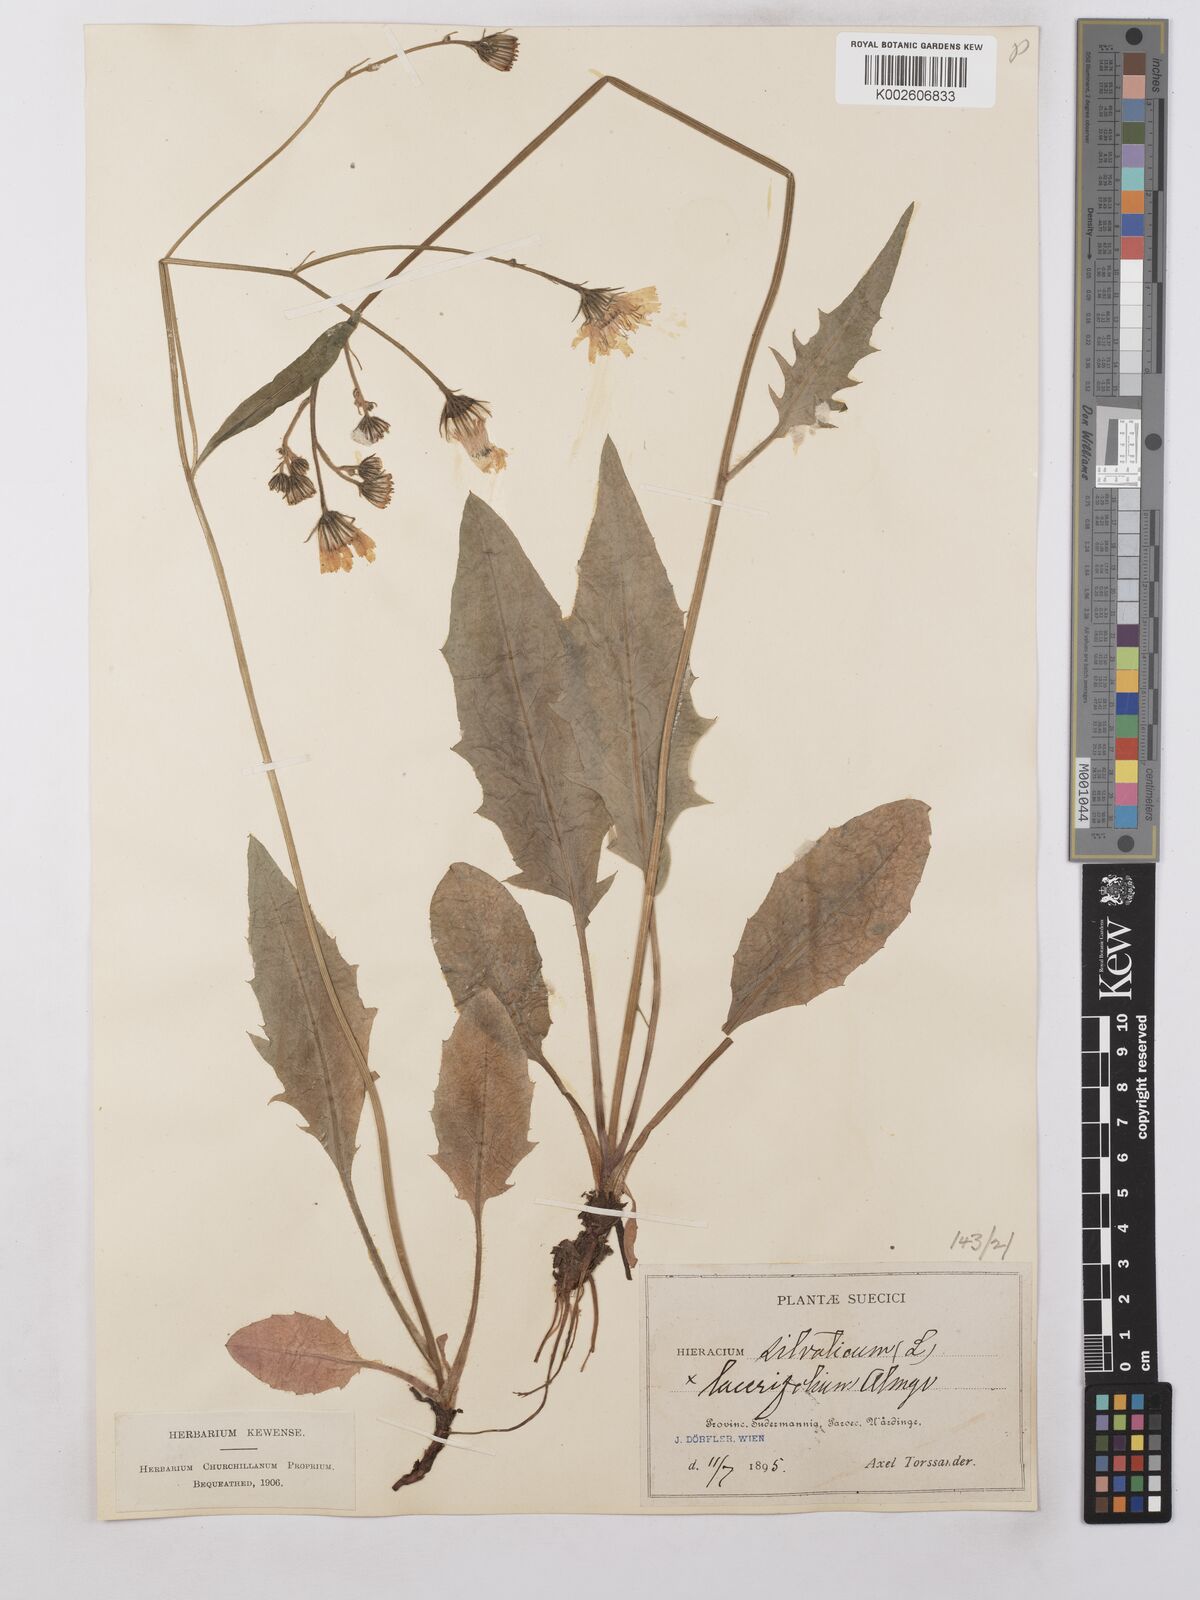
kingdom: Plantae
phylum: Tracheophyta
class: Magnoliopsida
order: Asterales
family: Asteraceae
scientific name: Asteraceae
